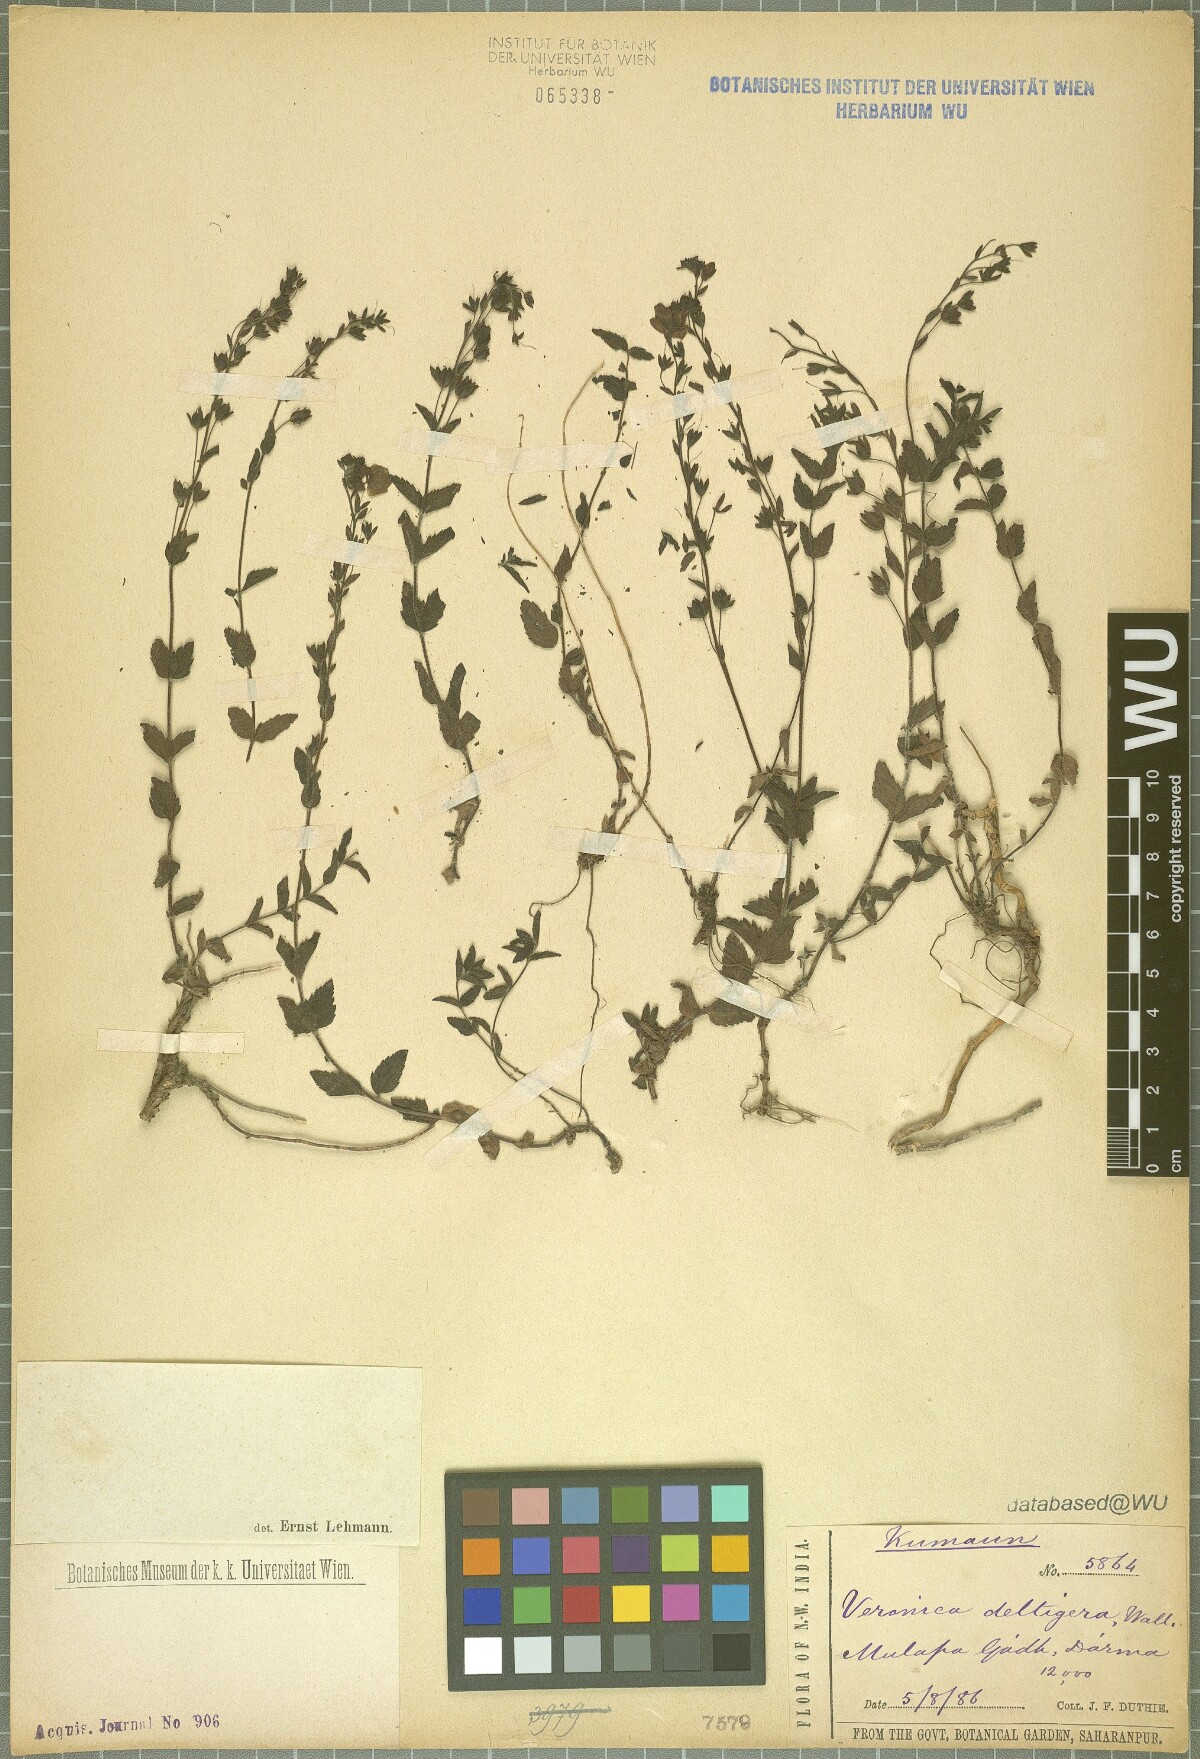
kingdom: Plantae
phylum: Tracheophyta
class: Magnoliopsida
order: Lamiales
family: Plantaginaceae
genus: Veronica
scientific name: Veronica deltigera
